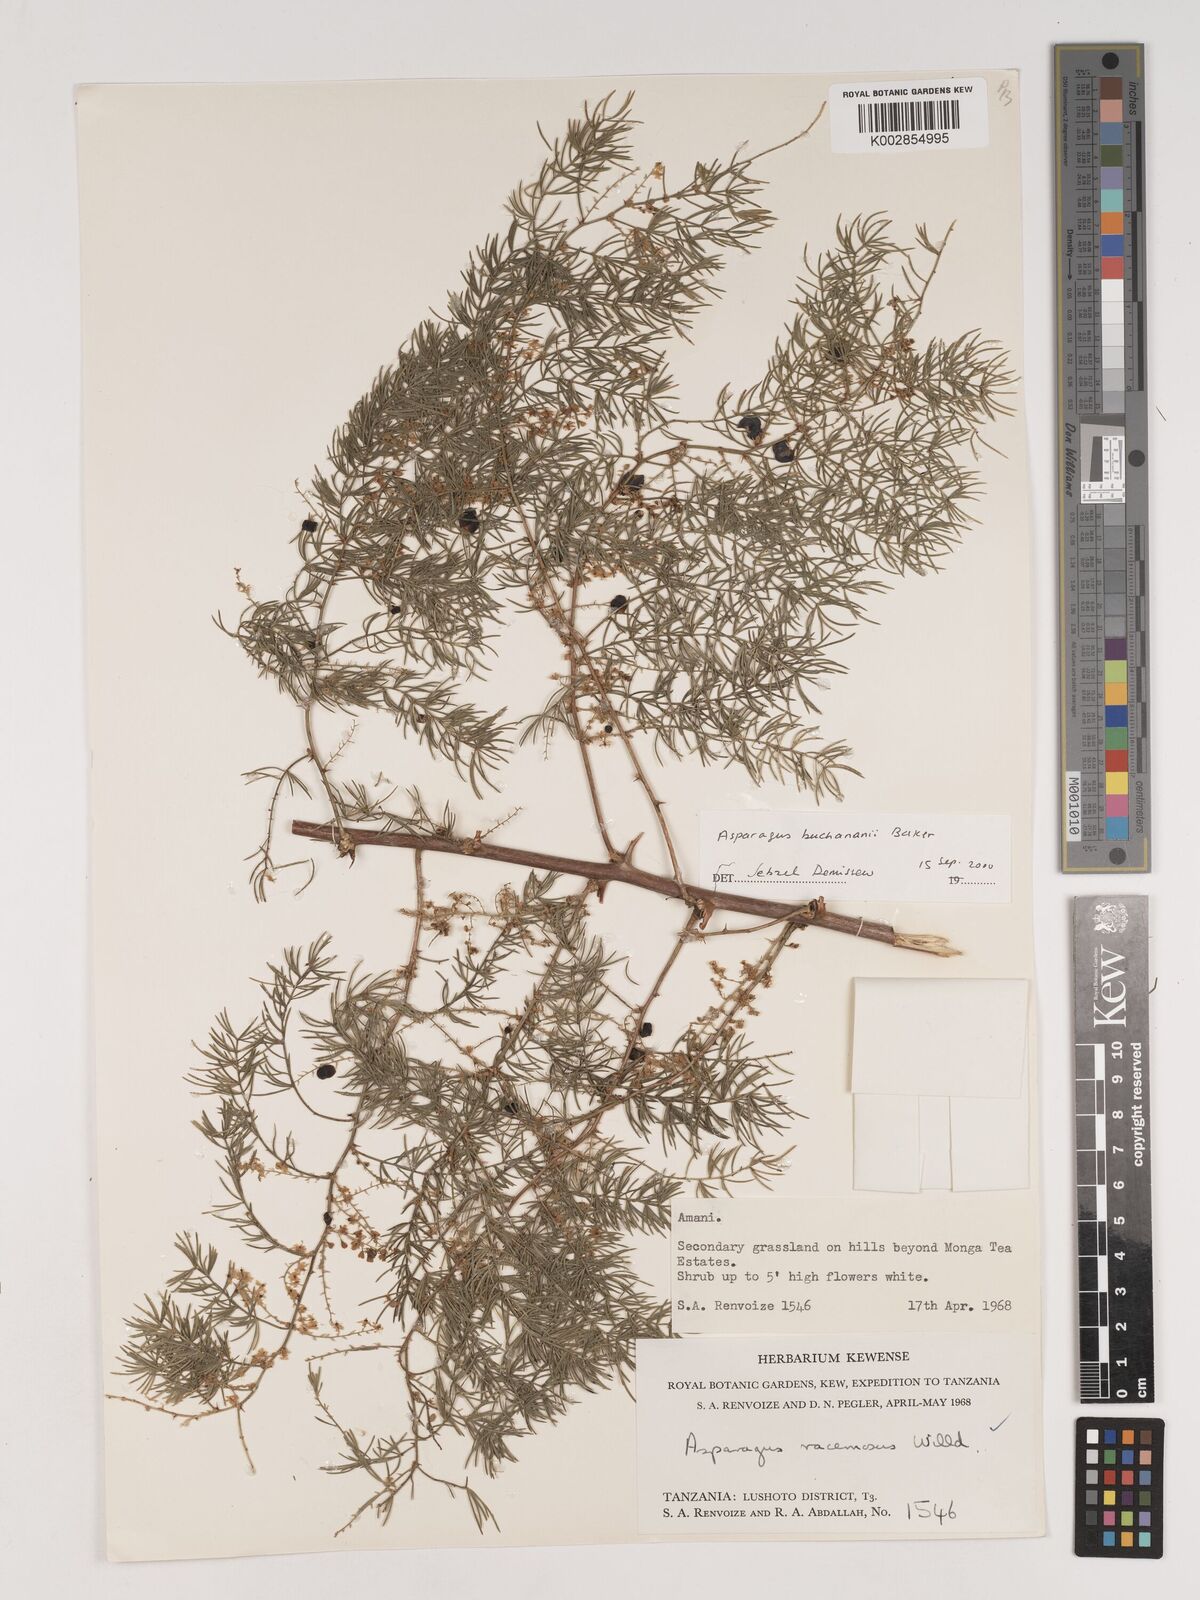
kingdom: Plantae
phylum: Tracheophyta
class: Liliopsida
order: Asparagales
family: Asparagaceae
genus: Asparagus
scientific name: Asparagus buchananii
